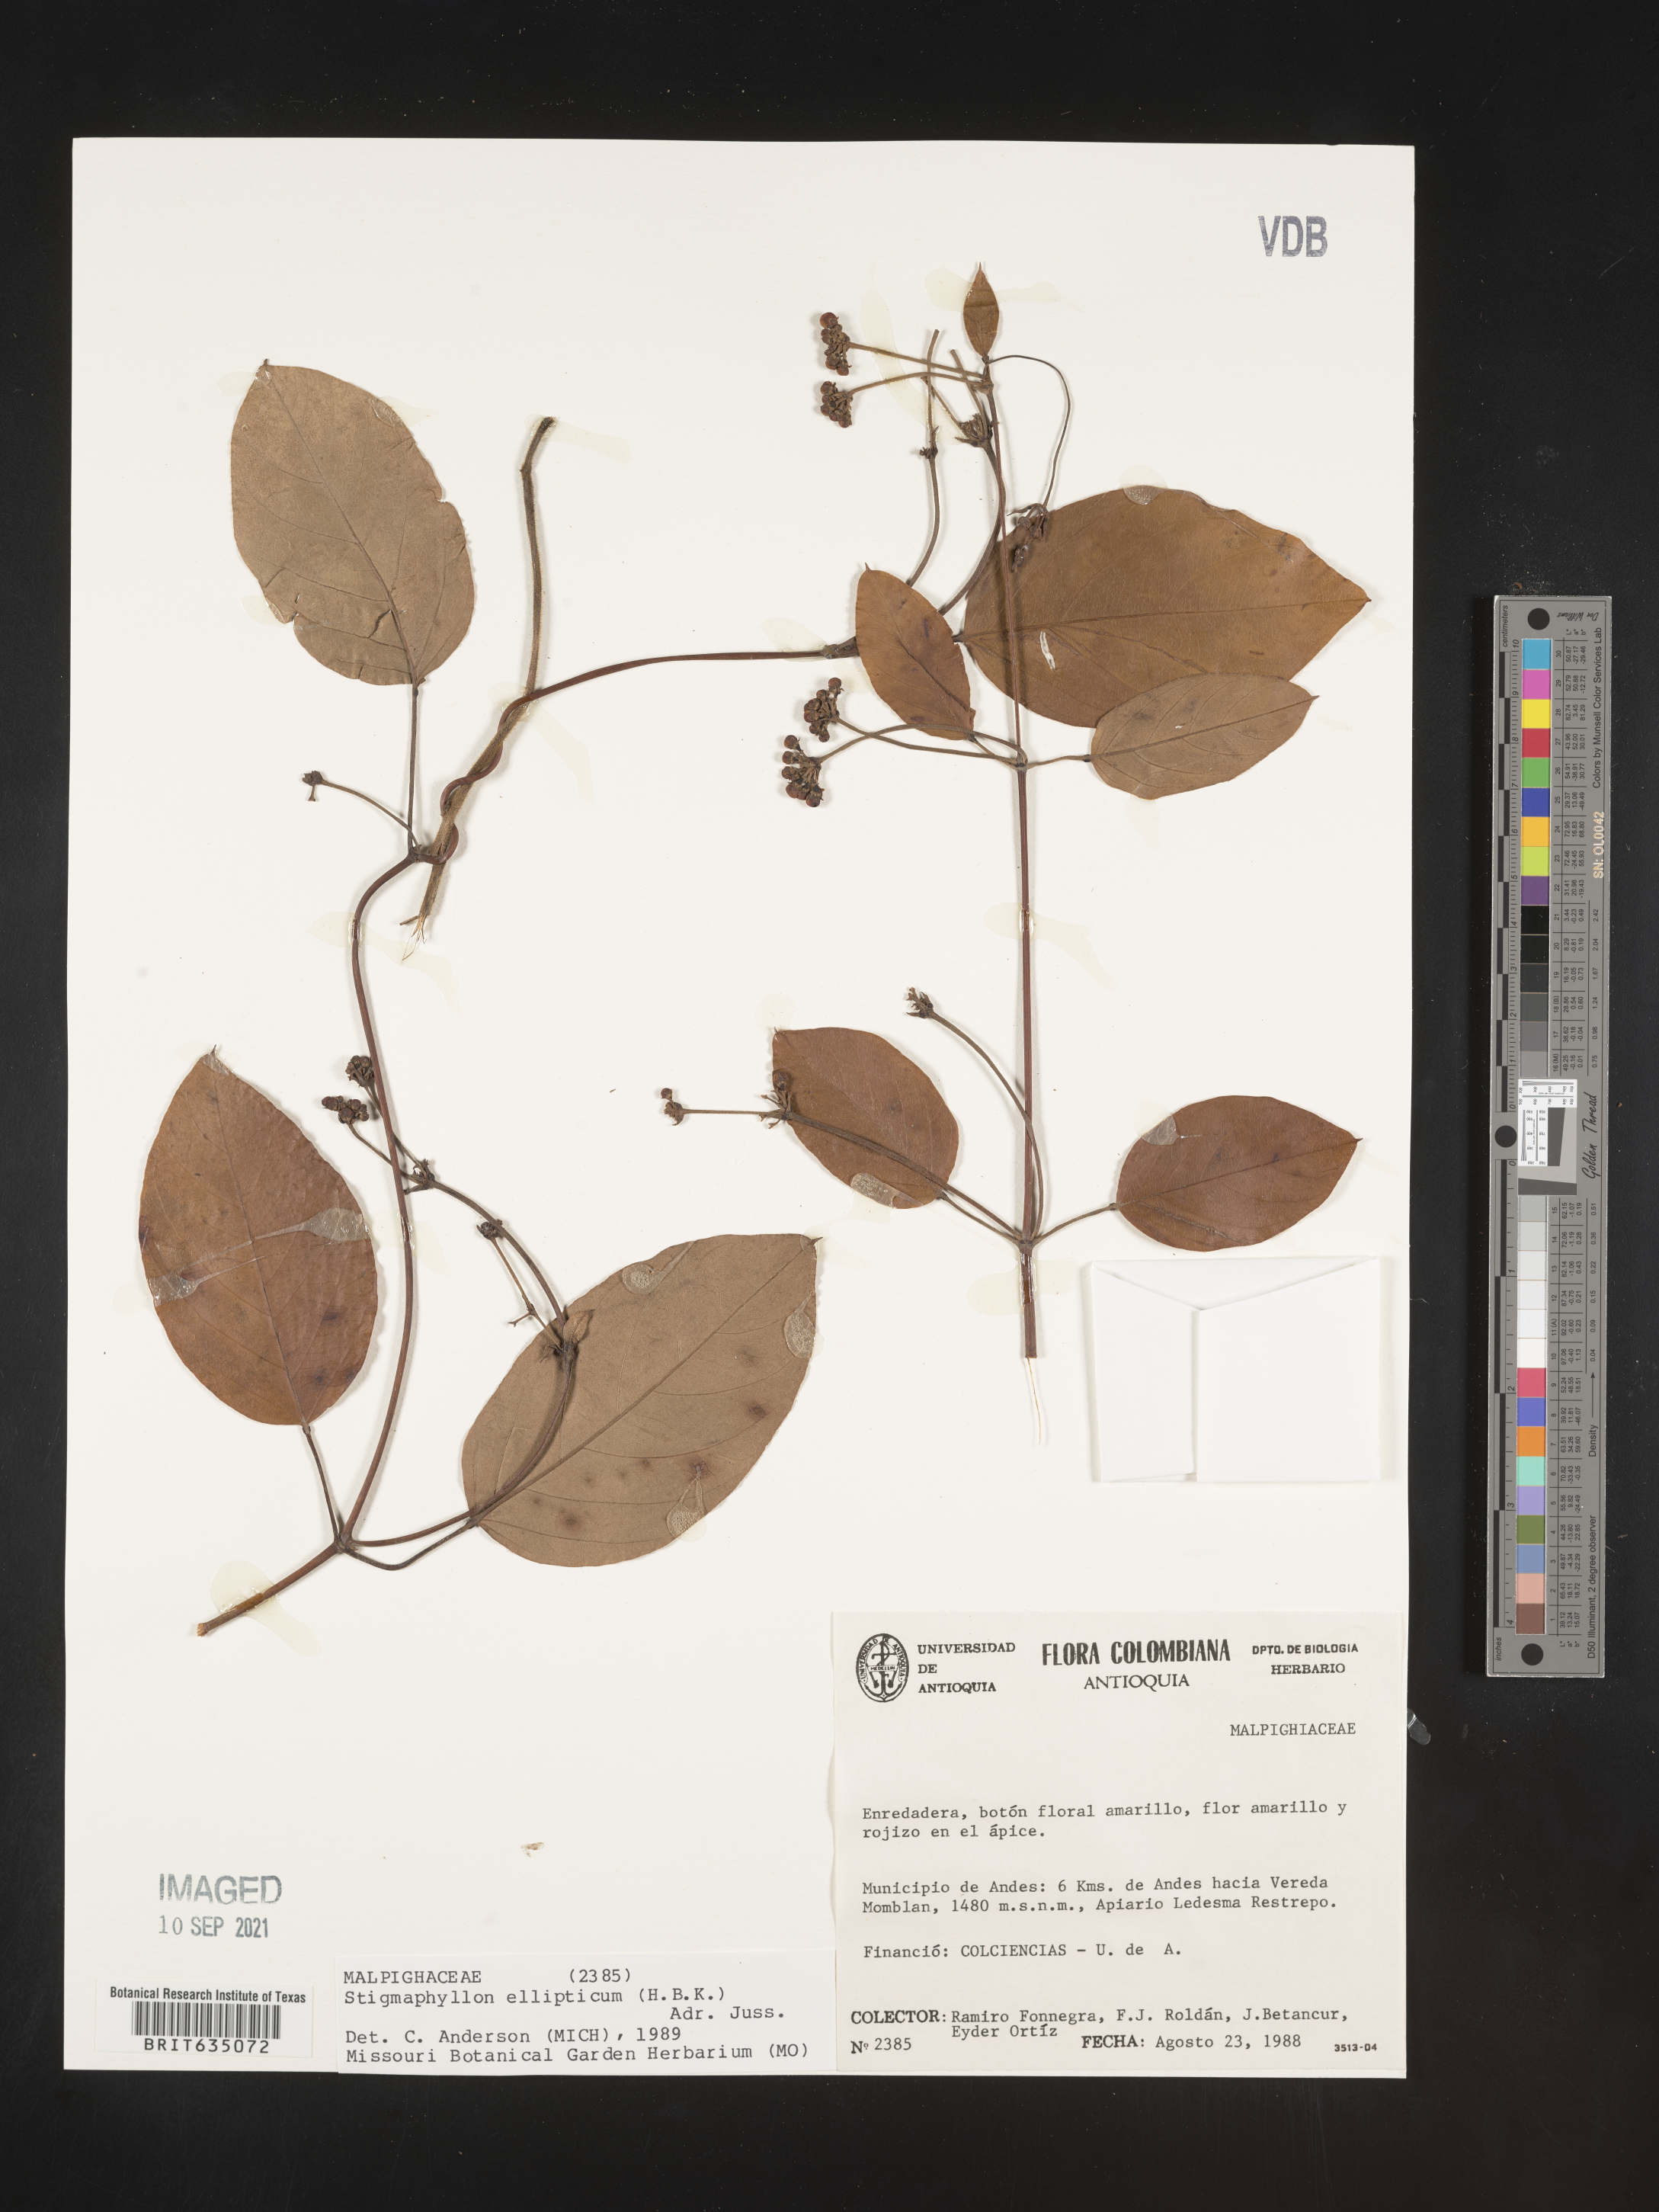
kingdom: Plantae
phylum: Tracheophyta
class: Magnoliopsida
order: Malpighiales
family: Malpighiaceae
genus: Stigmaphyllon
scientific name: Stigmaphyllon
